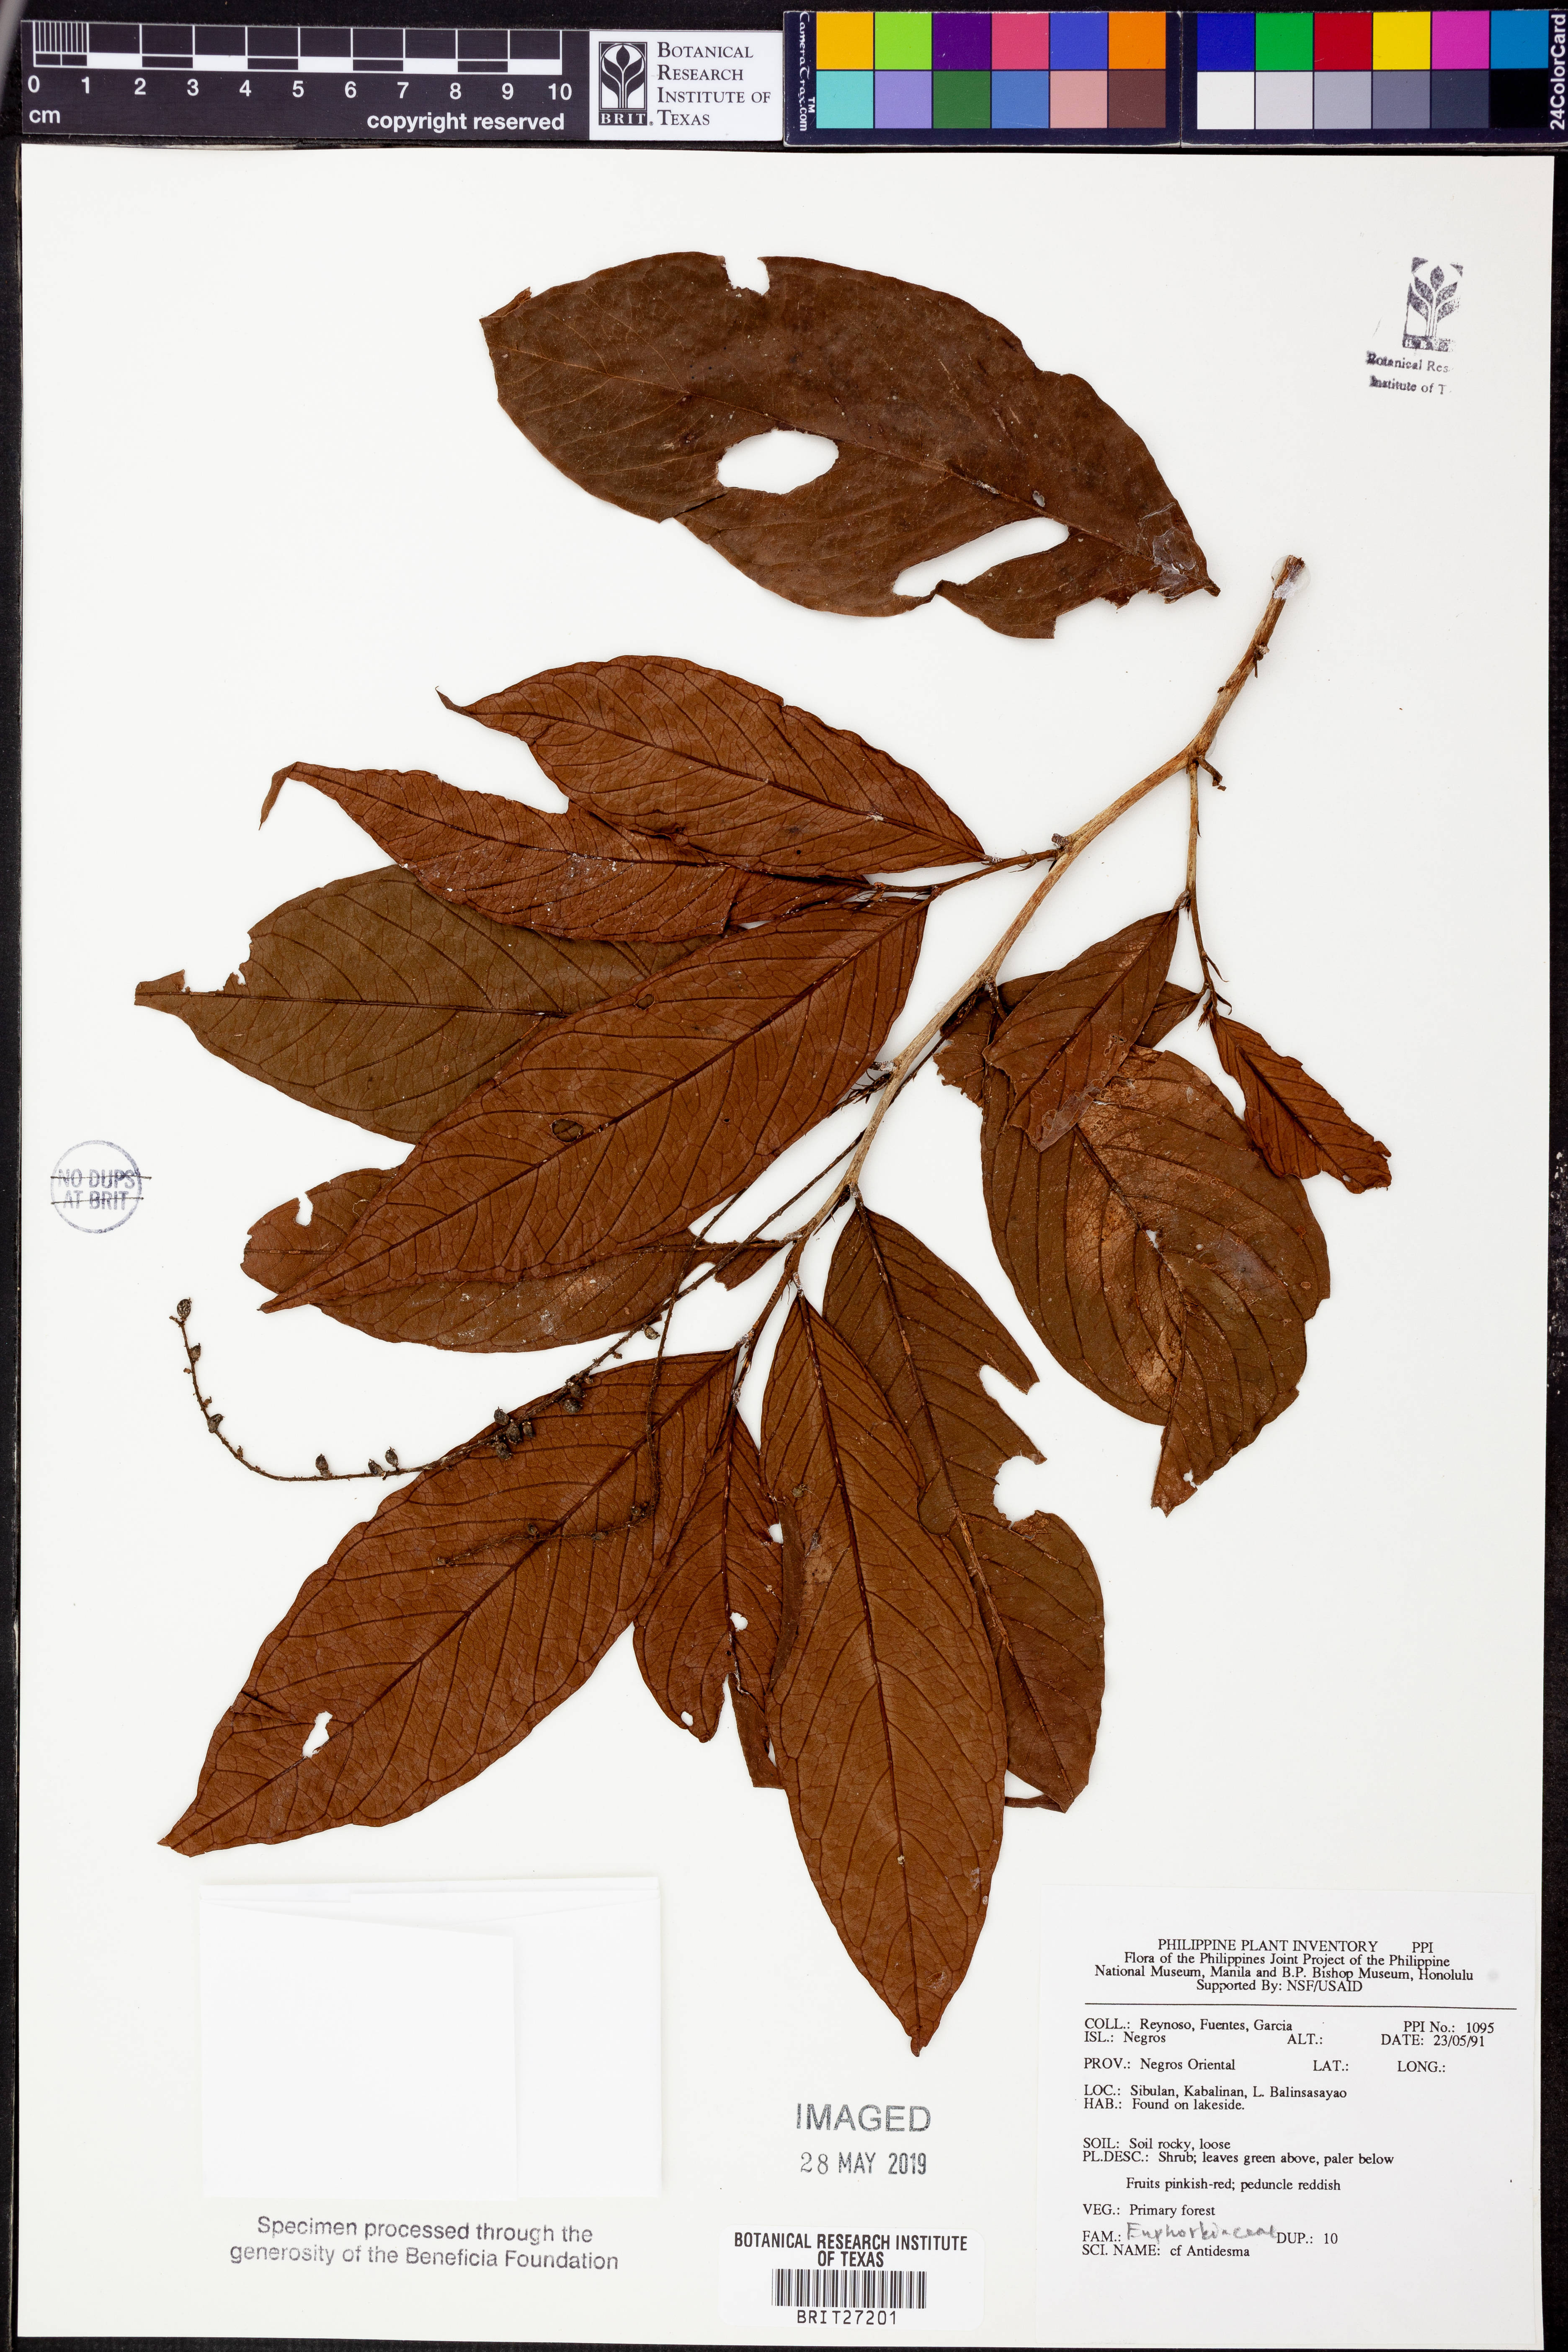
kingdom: Plantae
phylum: Tracheophyta
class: Magnoliopsida
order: Malpighiales
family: Phyllanthaceae
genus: Antidesma
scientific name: Antidesma
